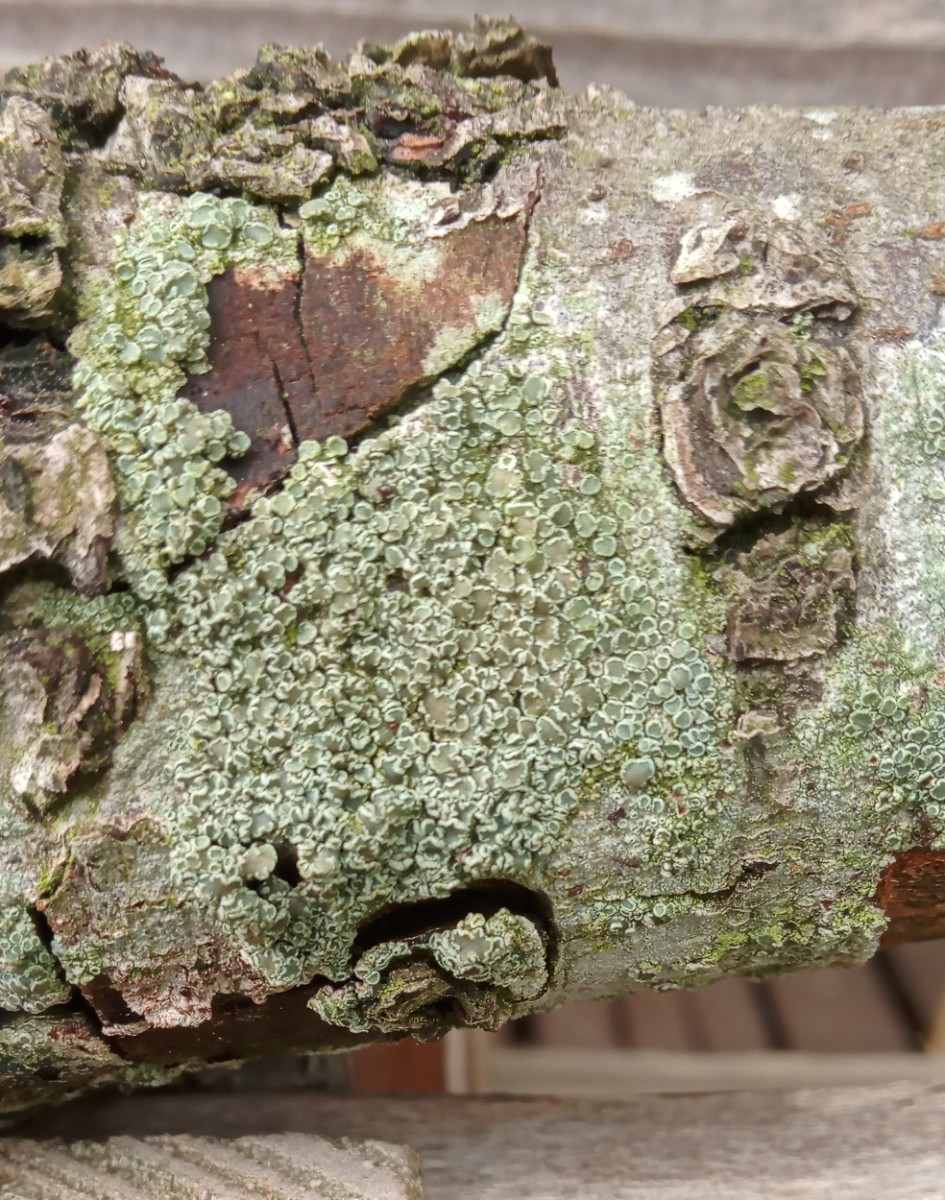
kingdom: Fungi
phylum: Ascomycota
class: Lecanoromycetes
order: Lecanorales
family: Lecanoraceae
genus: Lecanora
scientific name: Lecanora chlarotera
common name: brun kantskivelav
